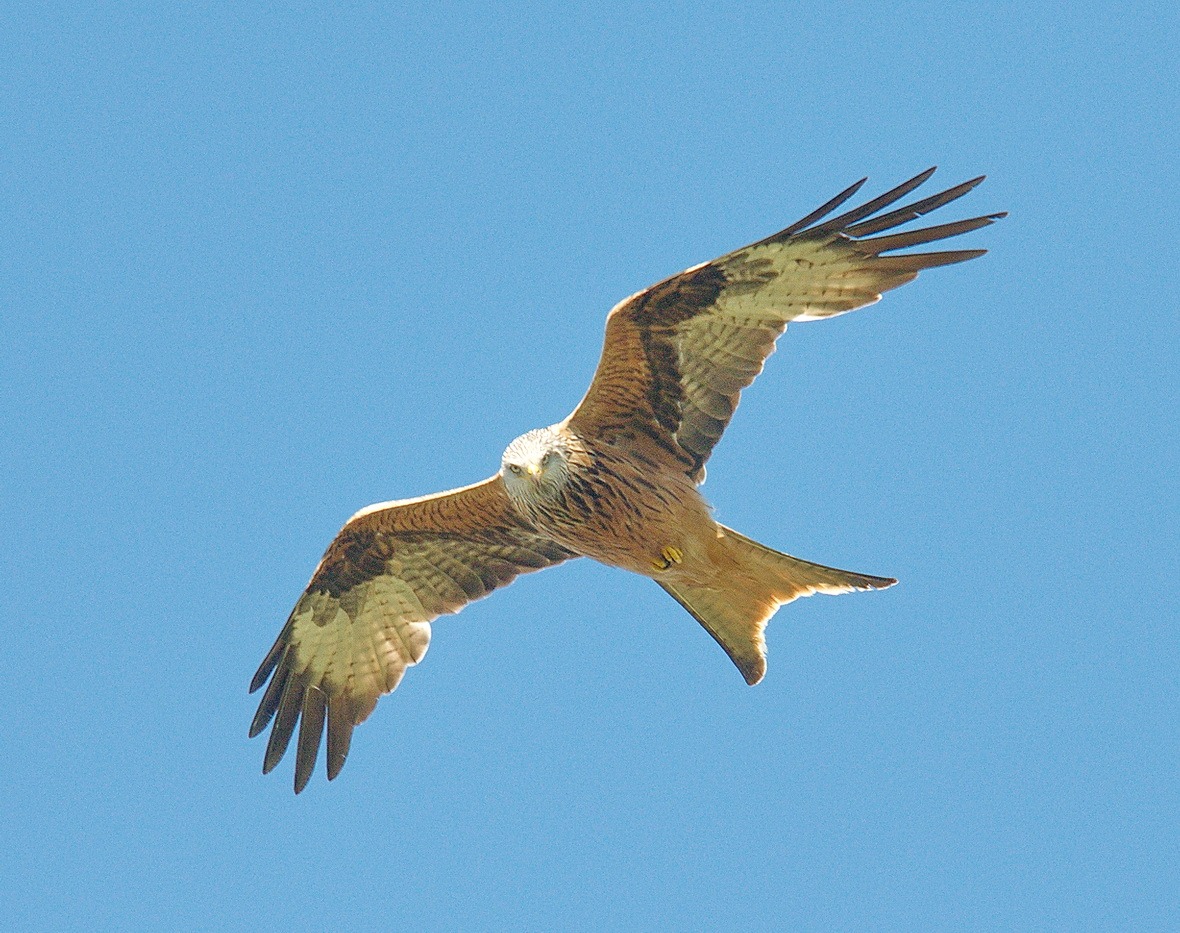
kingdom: Animalia
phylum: Chordata
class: Aves
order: Accipitriformes
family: Accipitridae
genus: Milvus
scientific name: Milvus milvus
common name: Rød glente
